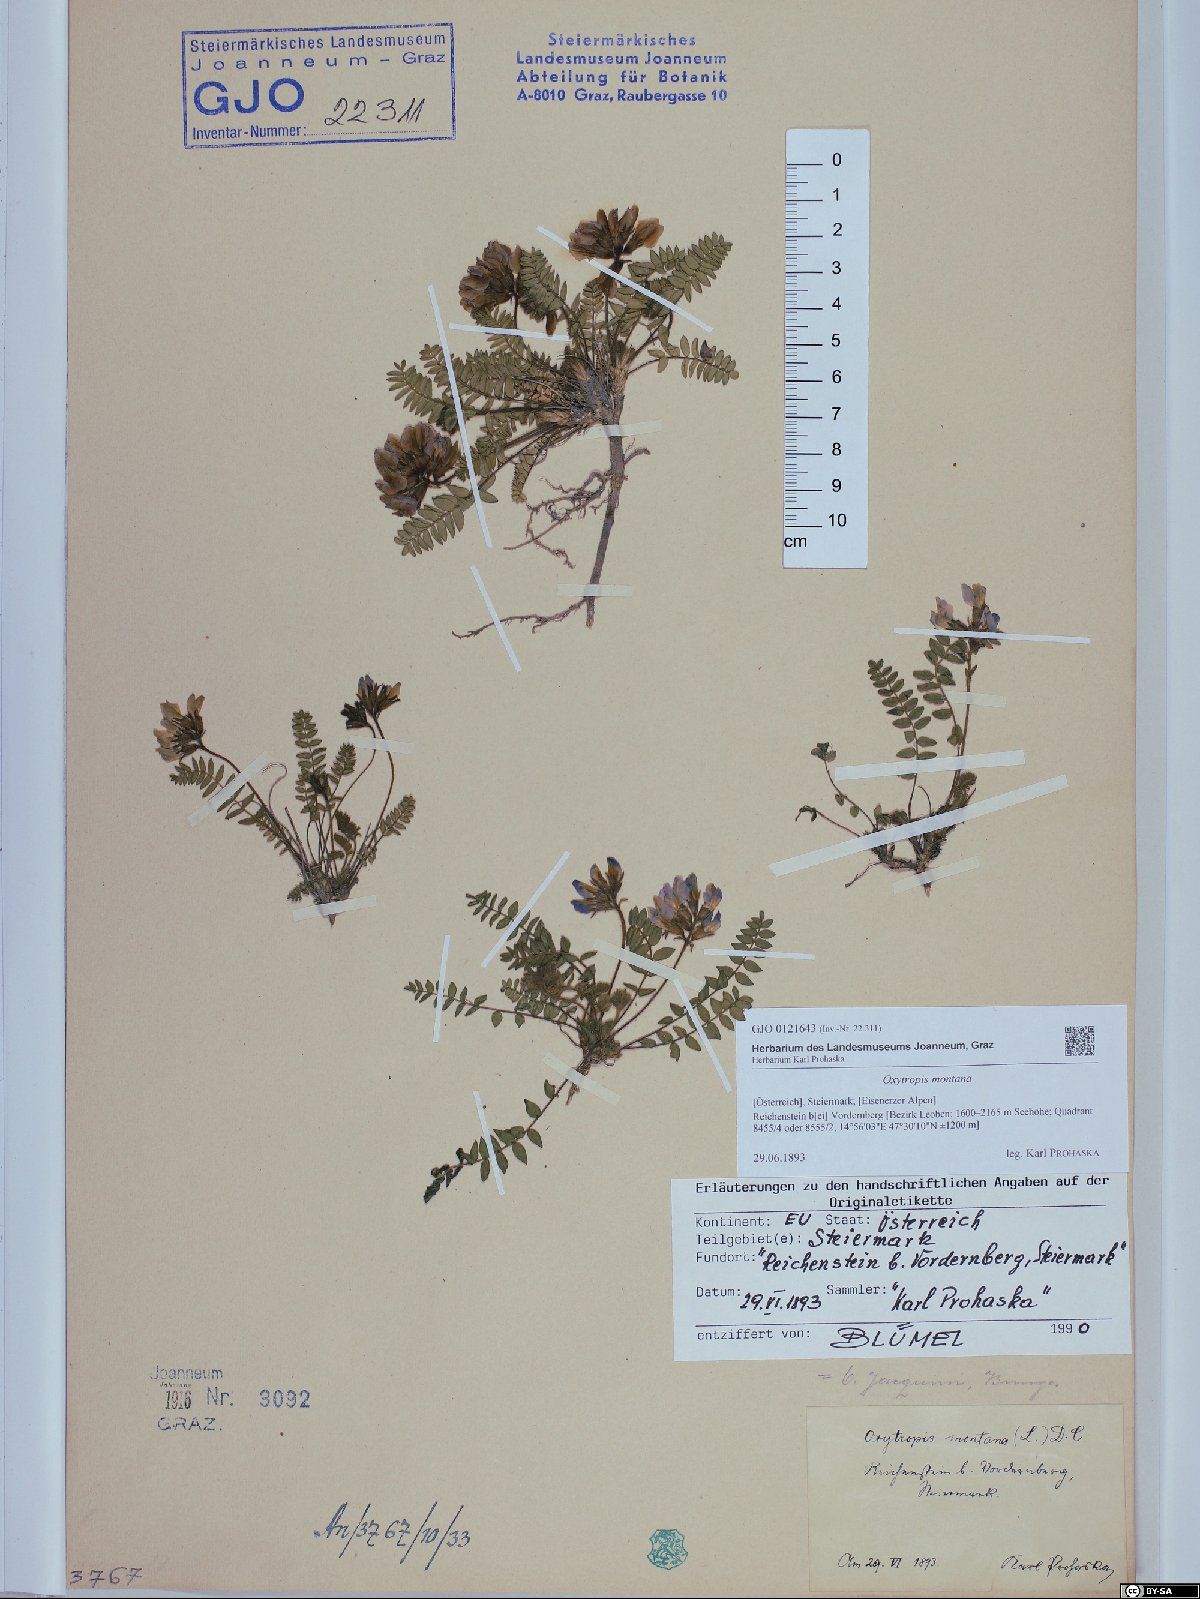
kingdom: Plantae
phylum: Tracheophyta
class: Magnoliopsida
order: Fabales
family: Fabaceae
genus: Oxytropis
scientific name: Oxytropis montana
